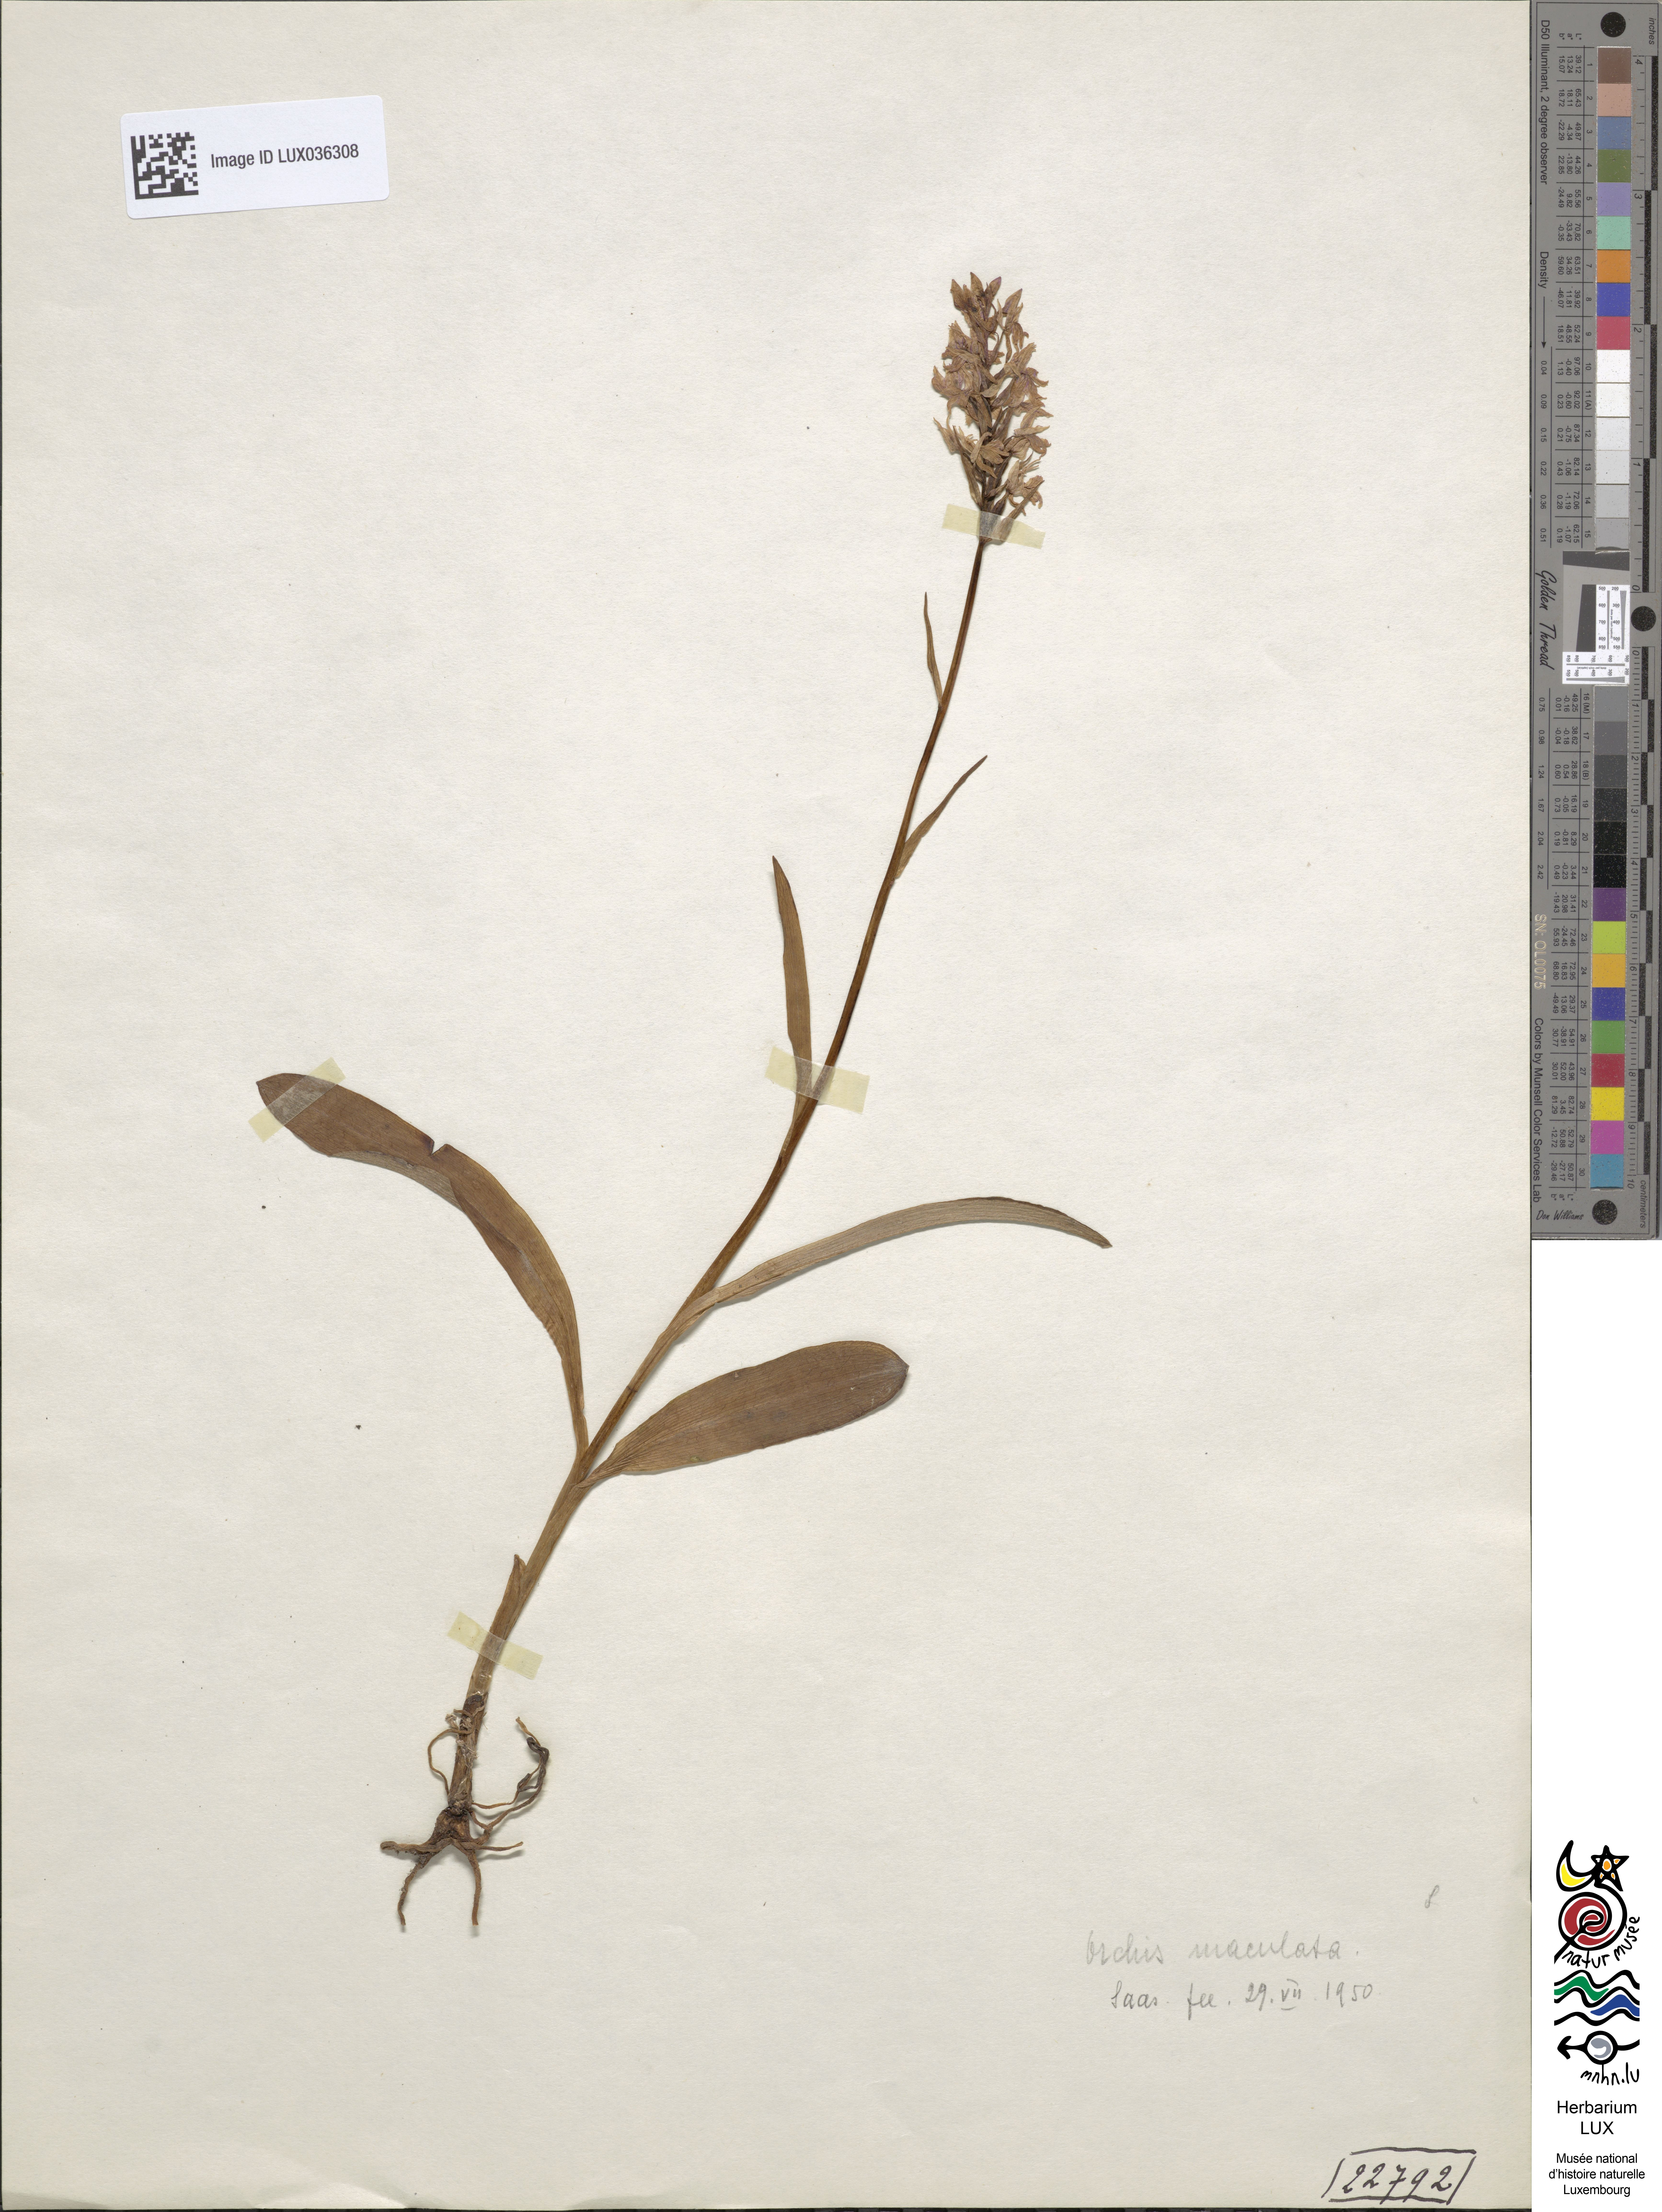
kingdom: Plantae
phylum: Tracheophyta
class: Liliopsida
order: Asparagales
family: Orchidaceae
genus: Dactylorhiza
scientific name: Dactylorhiza maculata
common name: Heath spotted-orchid
